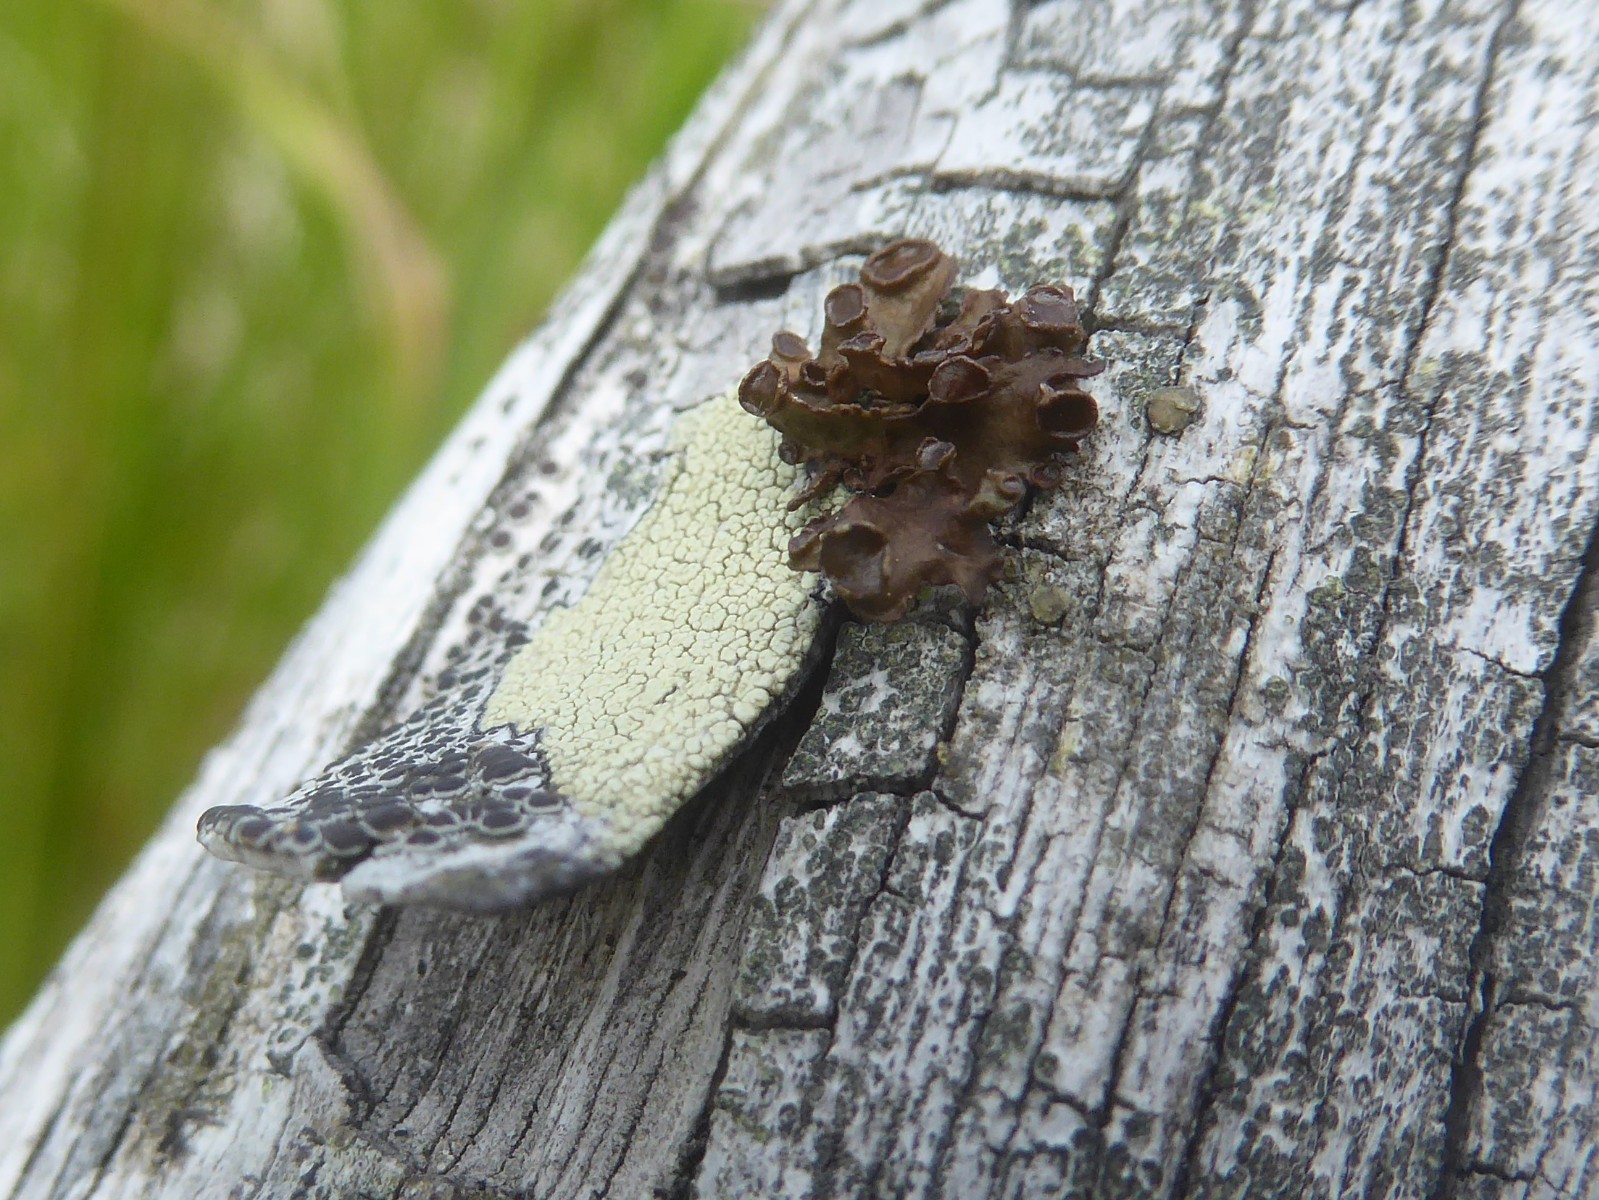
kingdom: Fungi
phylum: Ascomycota
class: Lecanoromycetes
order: Lecanorales
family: Parmeliaceae
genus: Cetraria
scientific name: Cetraria sepincola
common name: tue-kruslav
